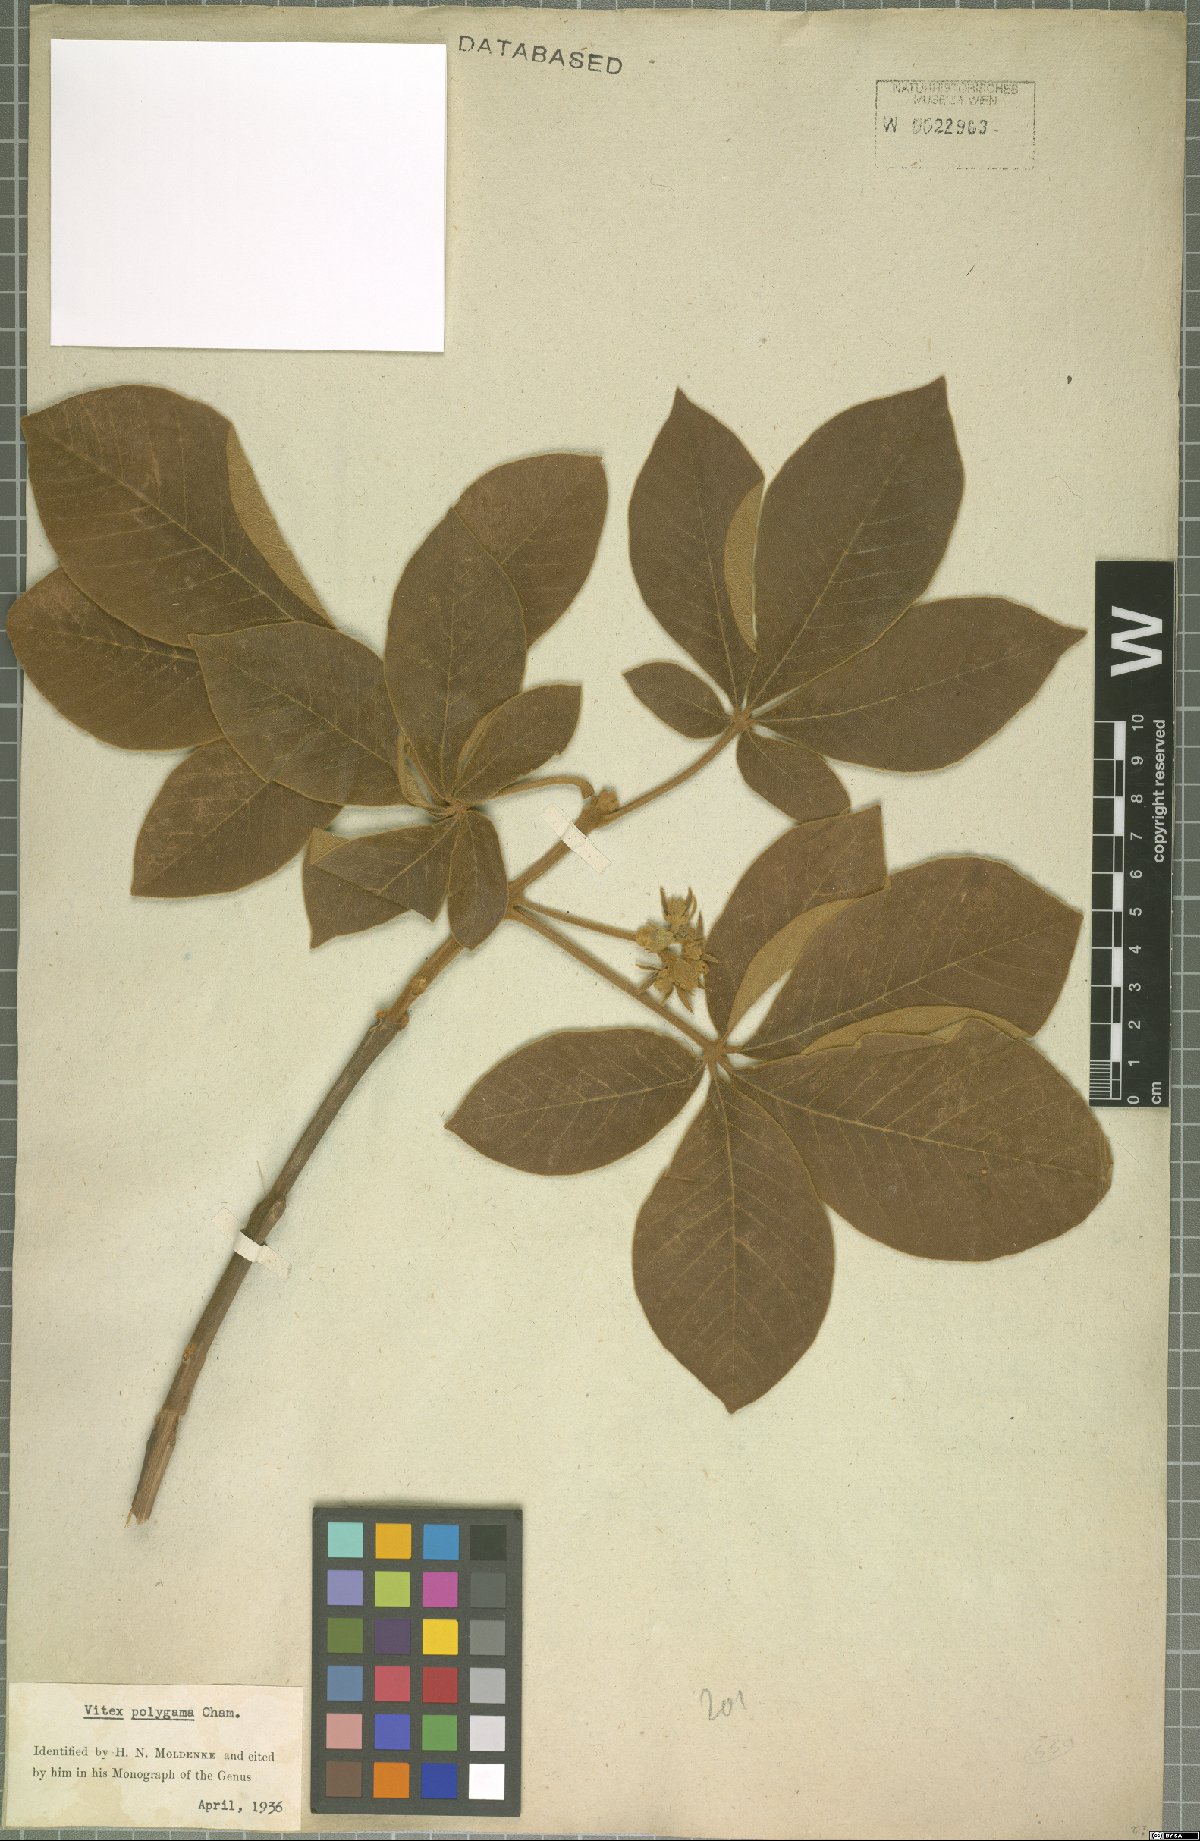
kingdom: Plantae
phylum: Tracheophyta
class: Magnoliopsida
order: Lamiales
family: Lamiaceae
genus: Vitex
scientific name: Vitex polygama
